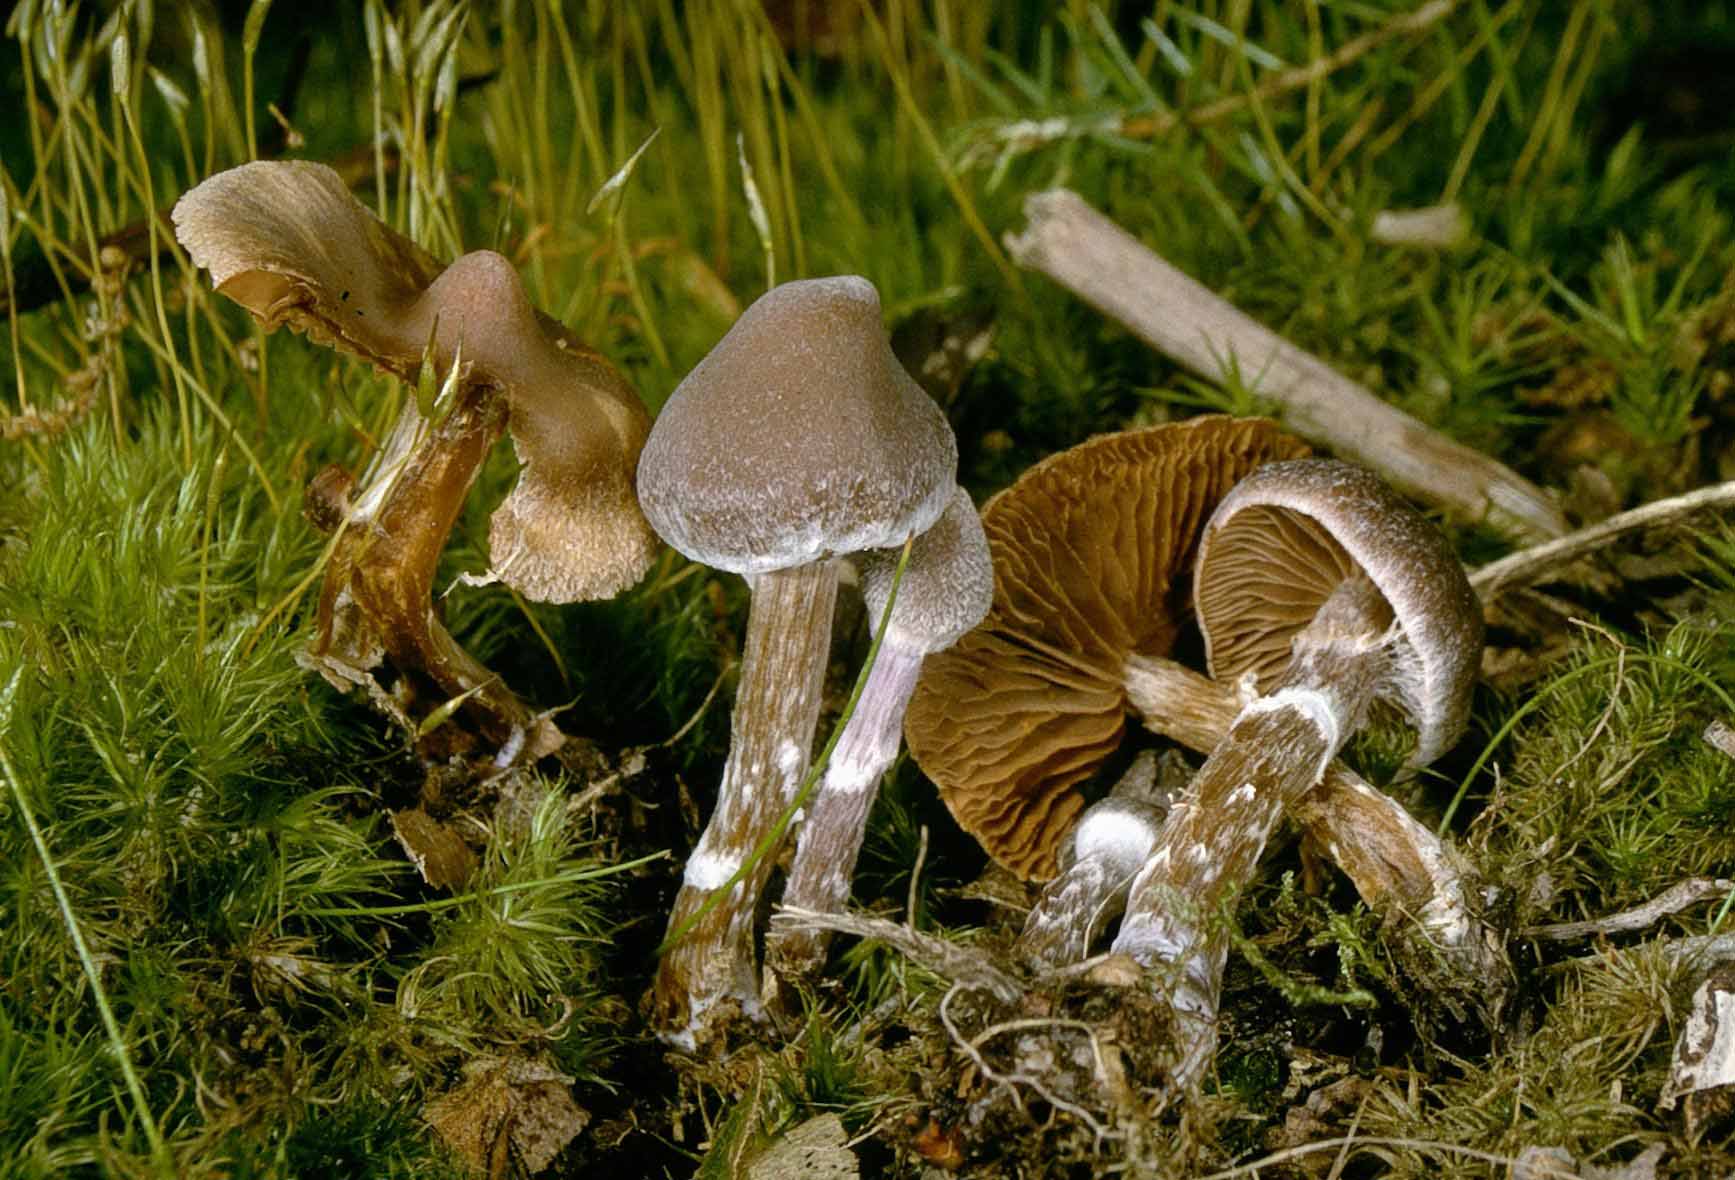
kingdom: Fungi
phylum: Basidiomycota
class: Agaricomycetes
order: Agaricales
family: Cortinariaceae
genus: Cortinarius
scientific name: Cortinarius
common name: pelargonie-slørhat
